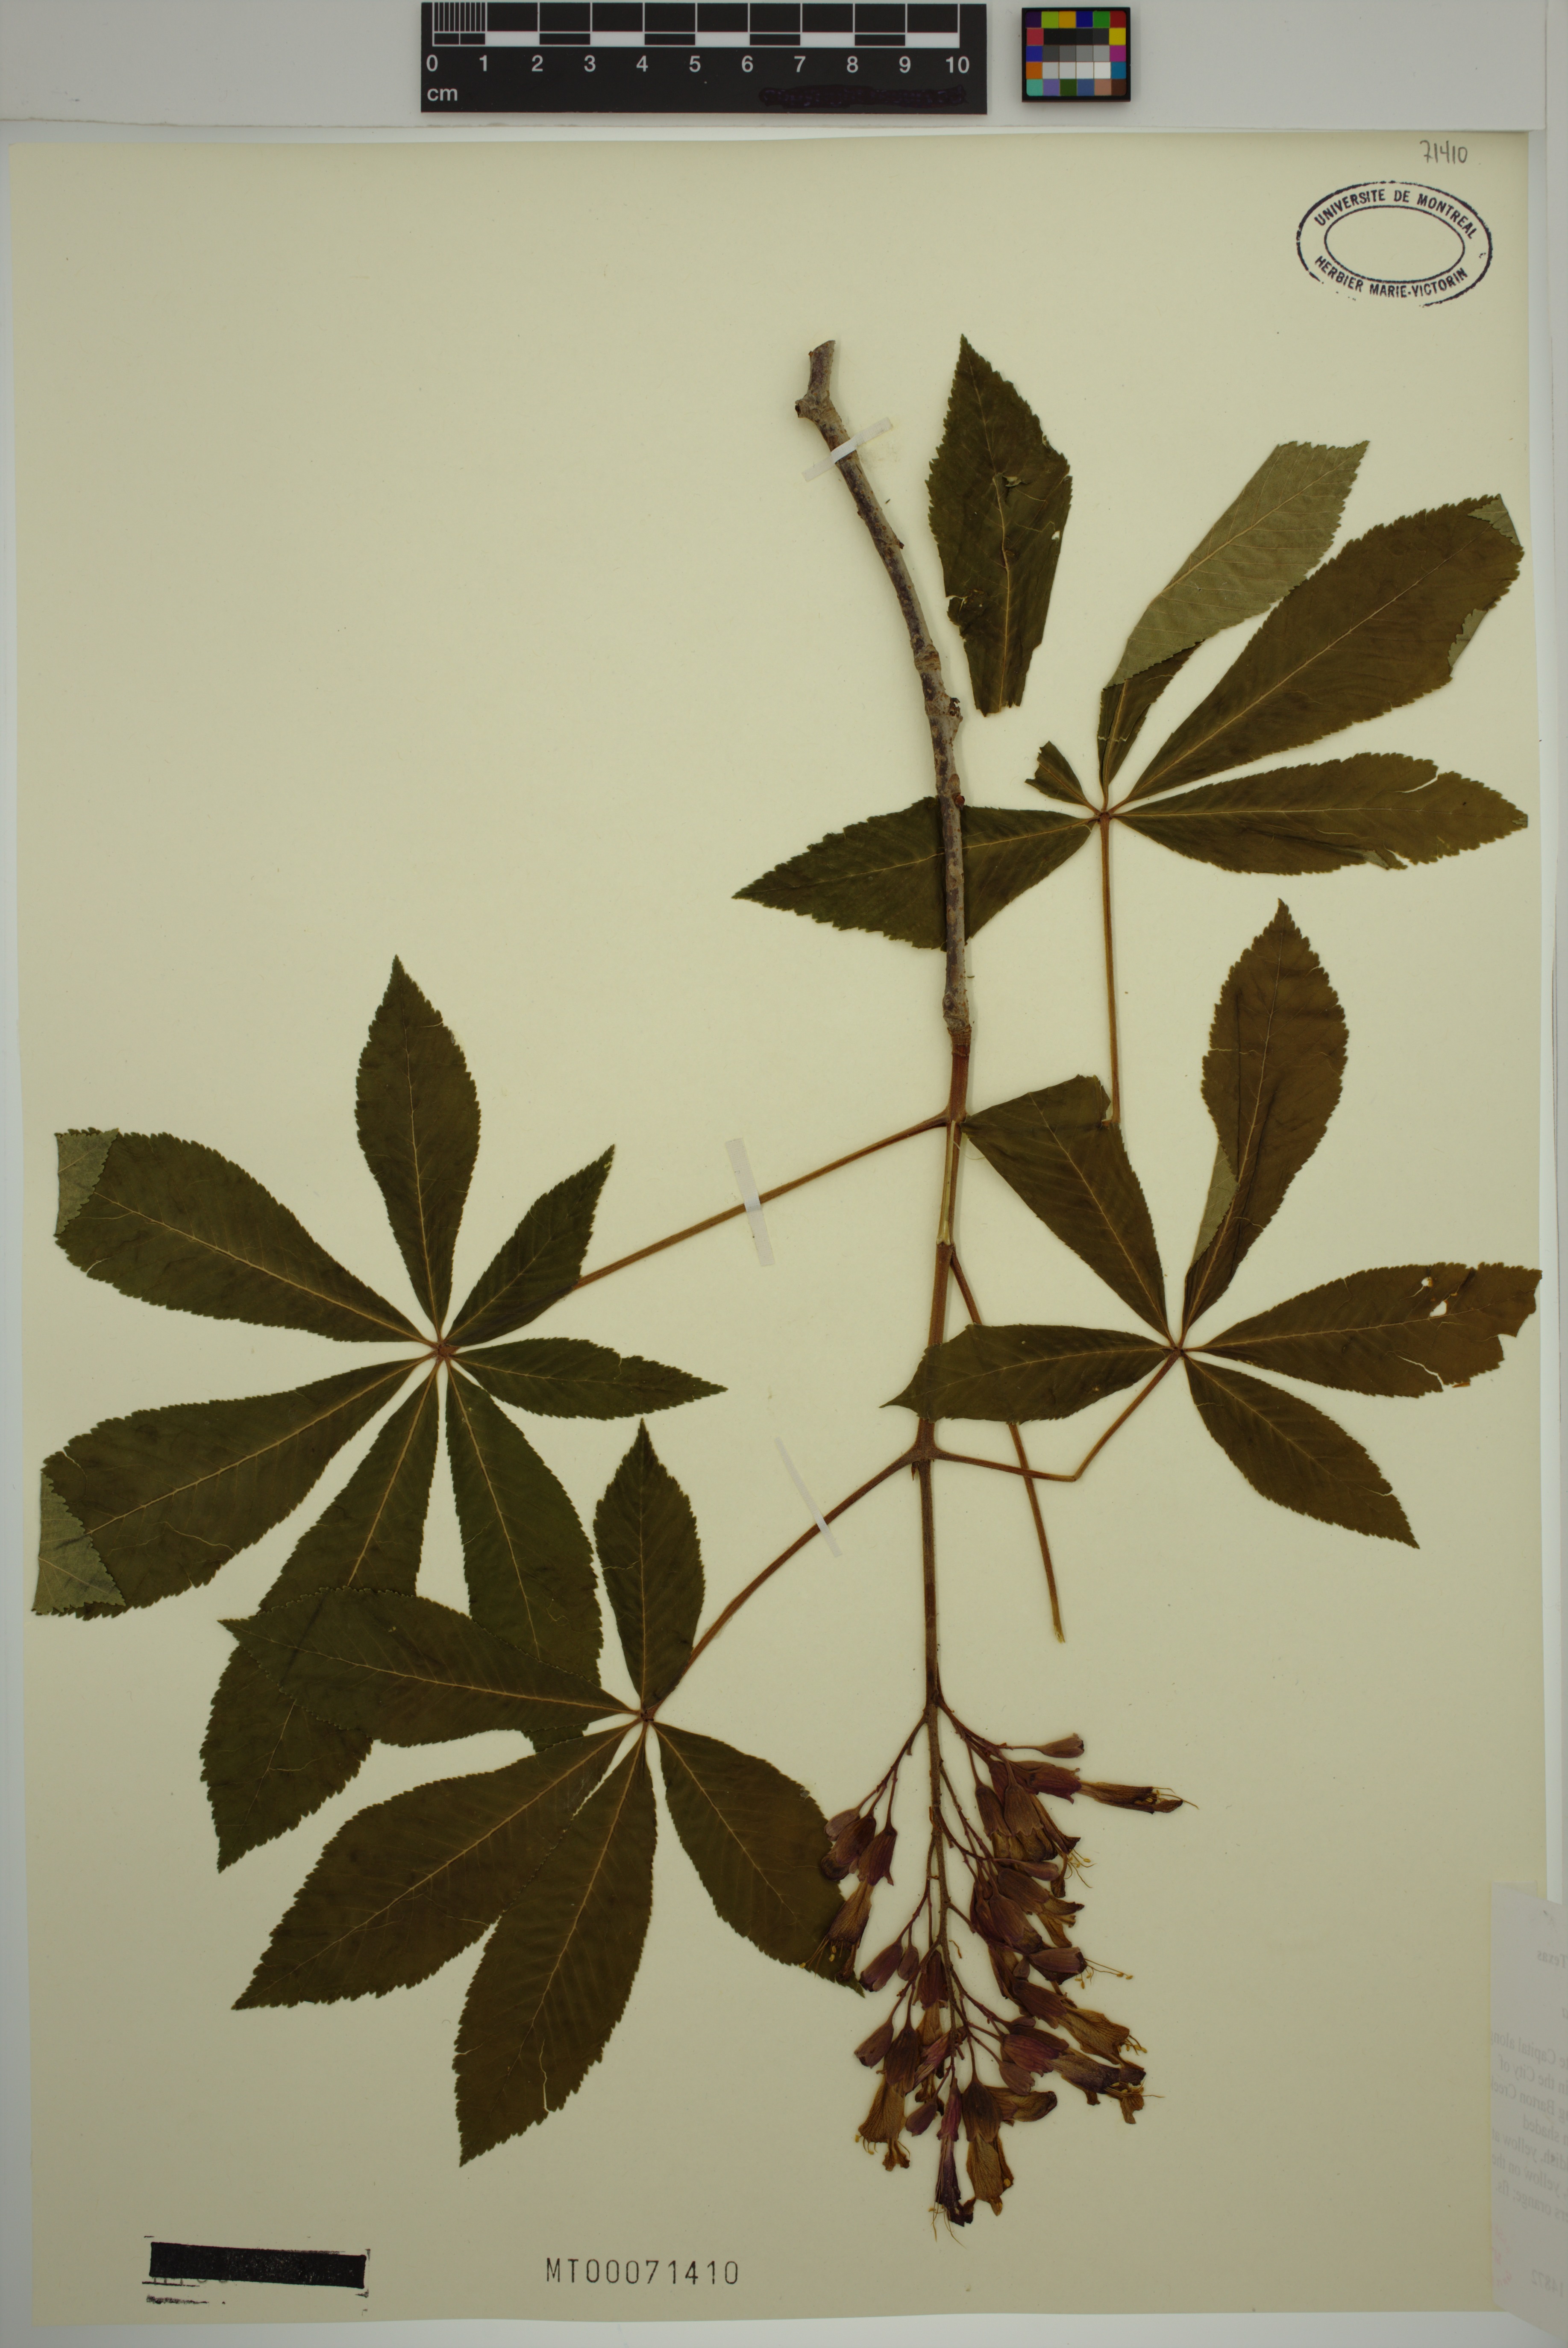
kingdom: Plantae
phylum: Tracheophyta
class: Magnoliopsida
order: Sapindales
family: Sapindaceae
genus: Aesculus
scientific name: Aesculus pavia
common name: Red buckeye
